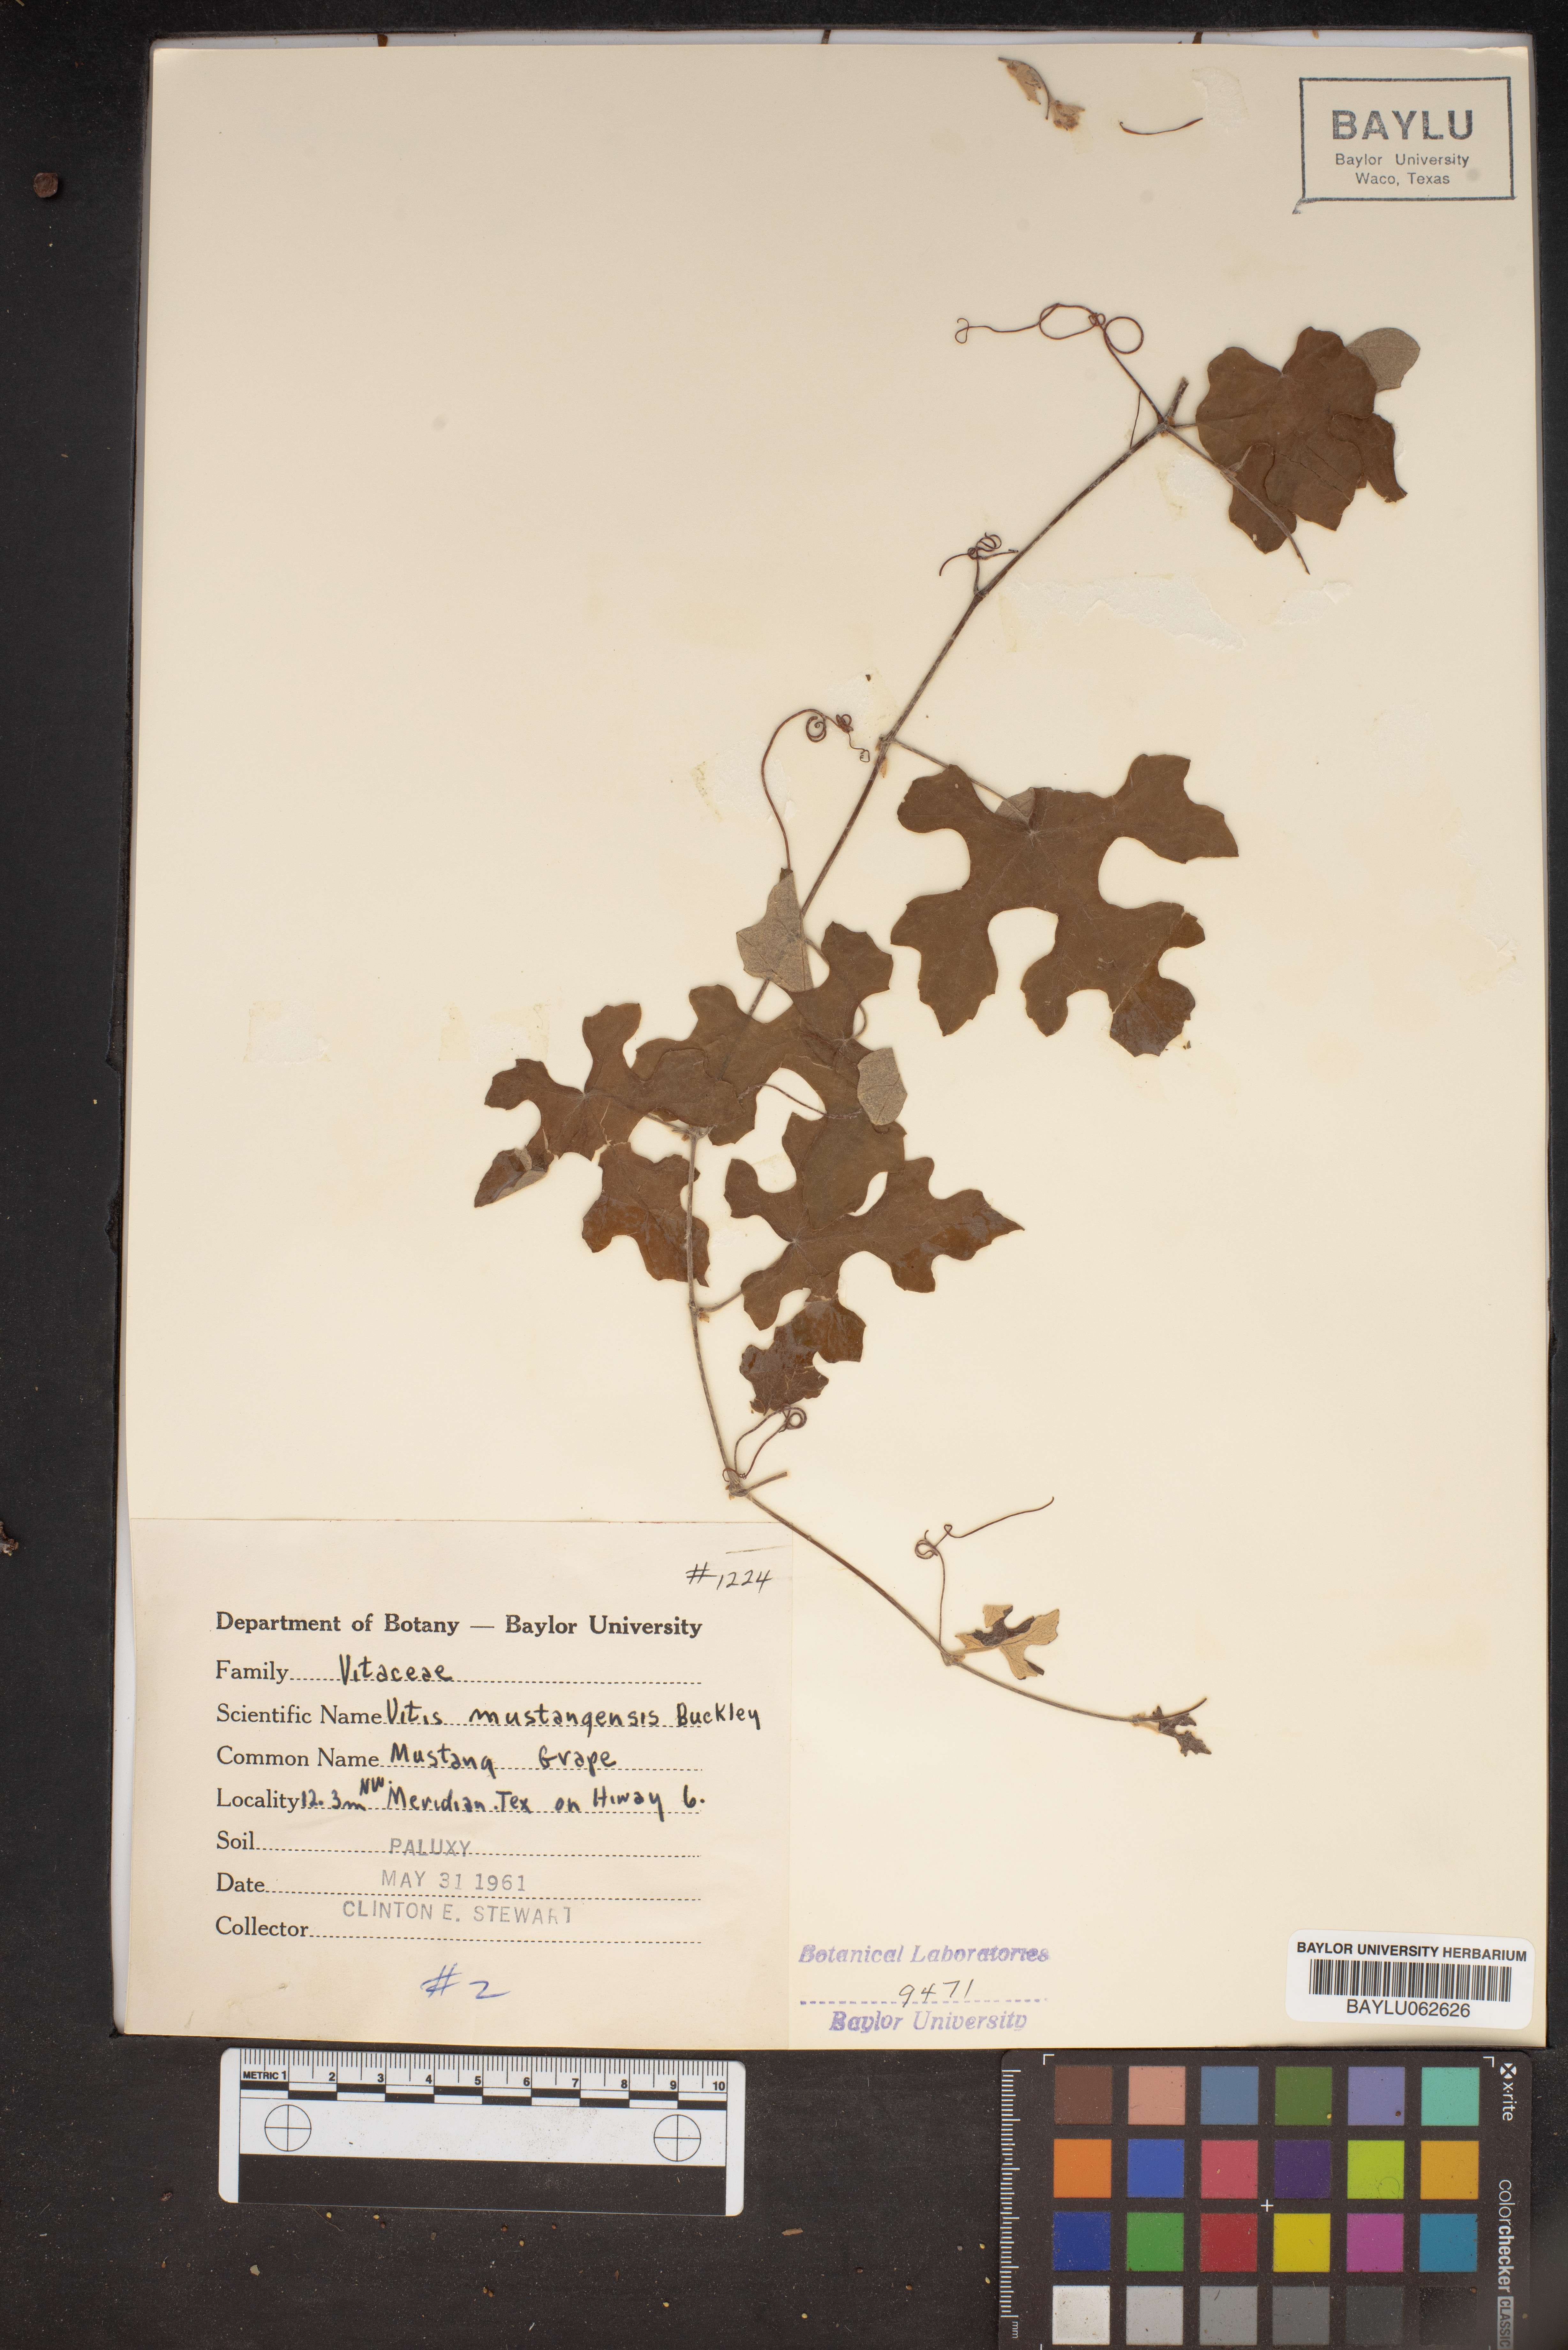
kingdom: Plantae
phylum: Tracheophyta
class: Magnoliopsida
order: Vitales
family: Vitaceae
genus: Vitis
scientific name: Vitis mustangensis
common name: Mustang grape
